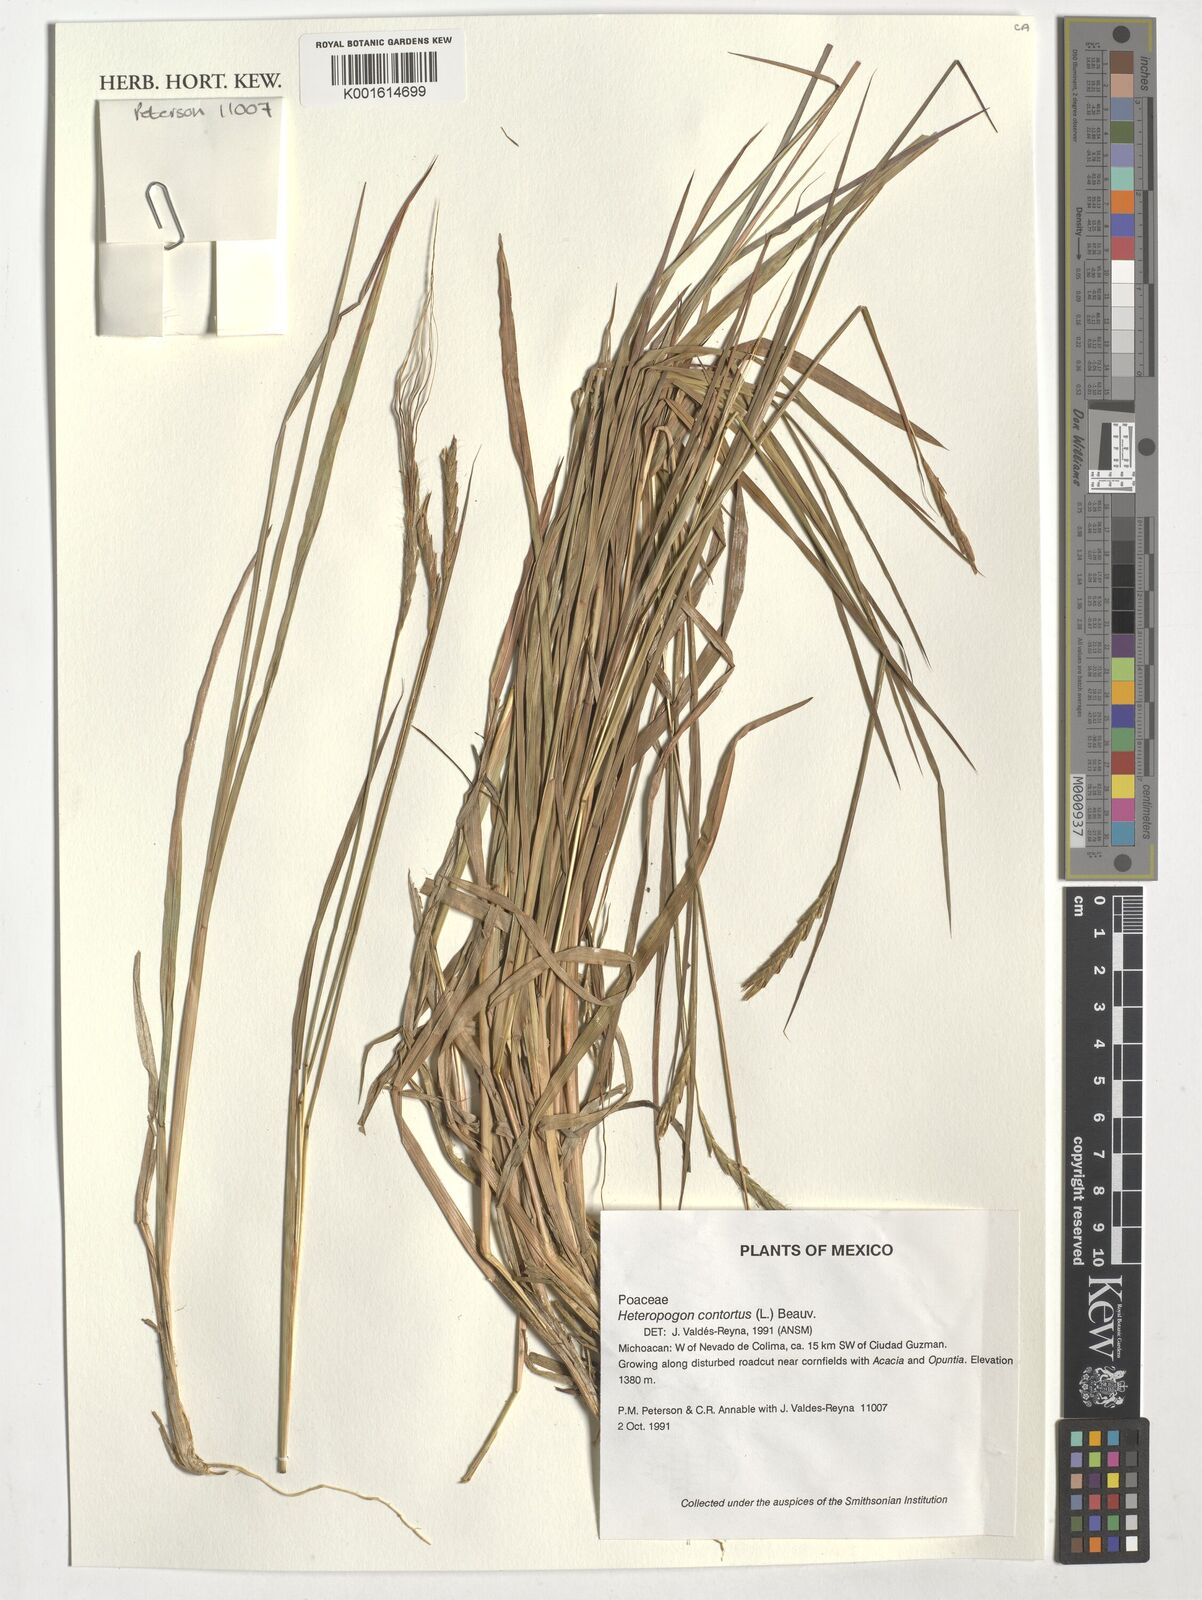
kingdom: Plantae
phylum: Tracheophyta
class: Liliopsida
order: Poales
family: Poaceae
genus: Heteropogon
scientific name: Heteropogon contortus
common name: Tanglehead
